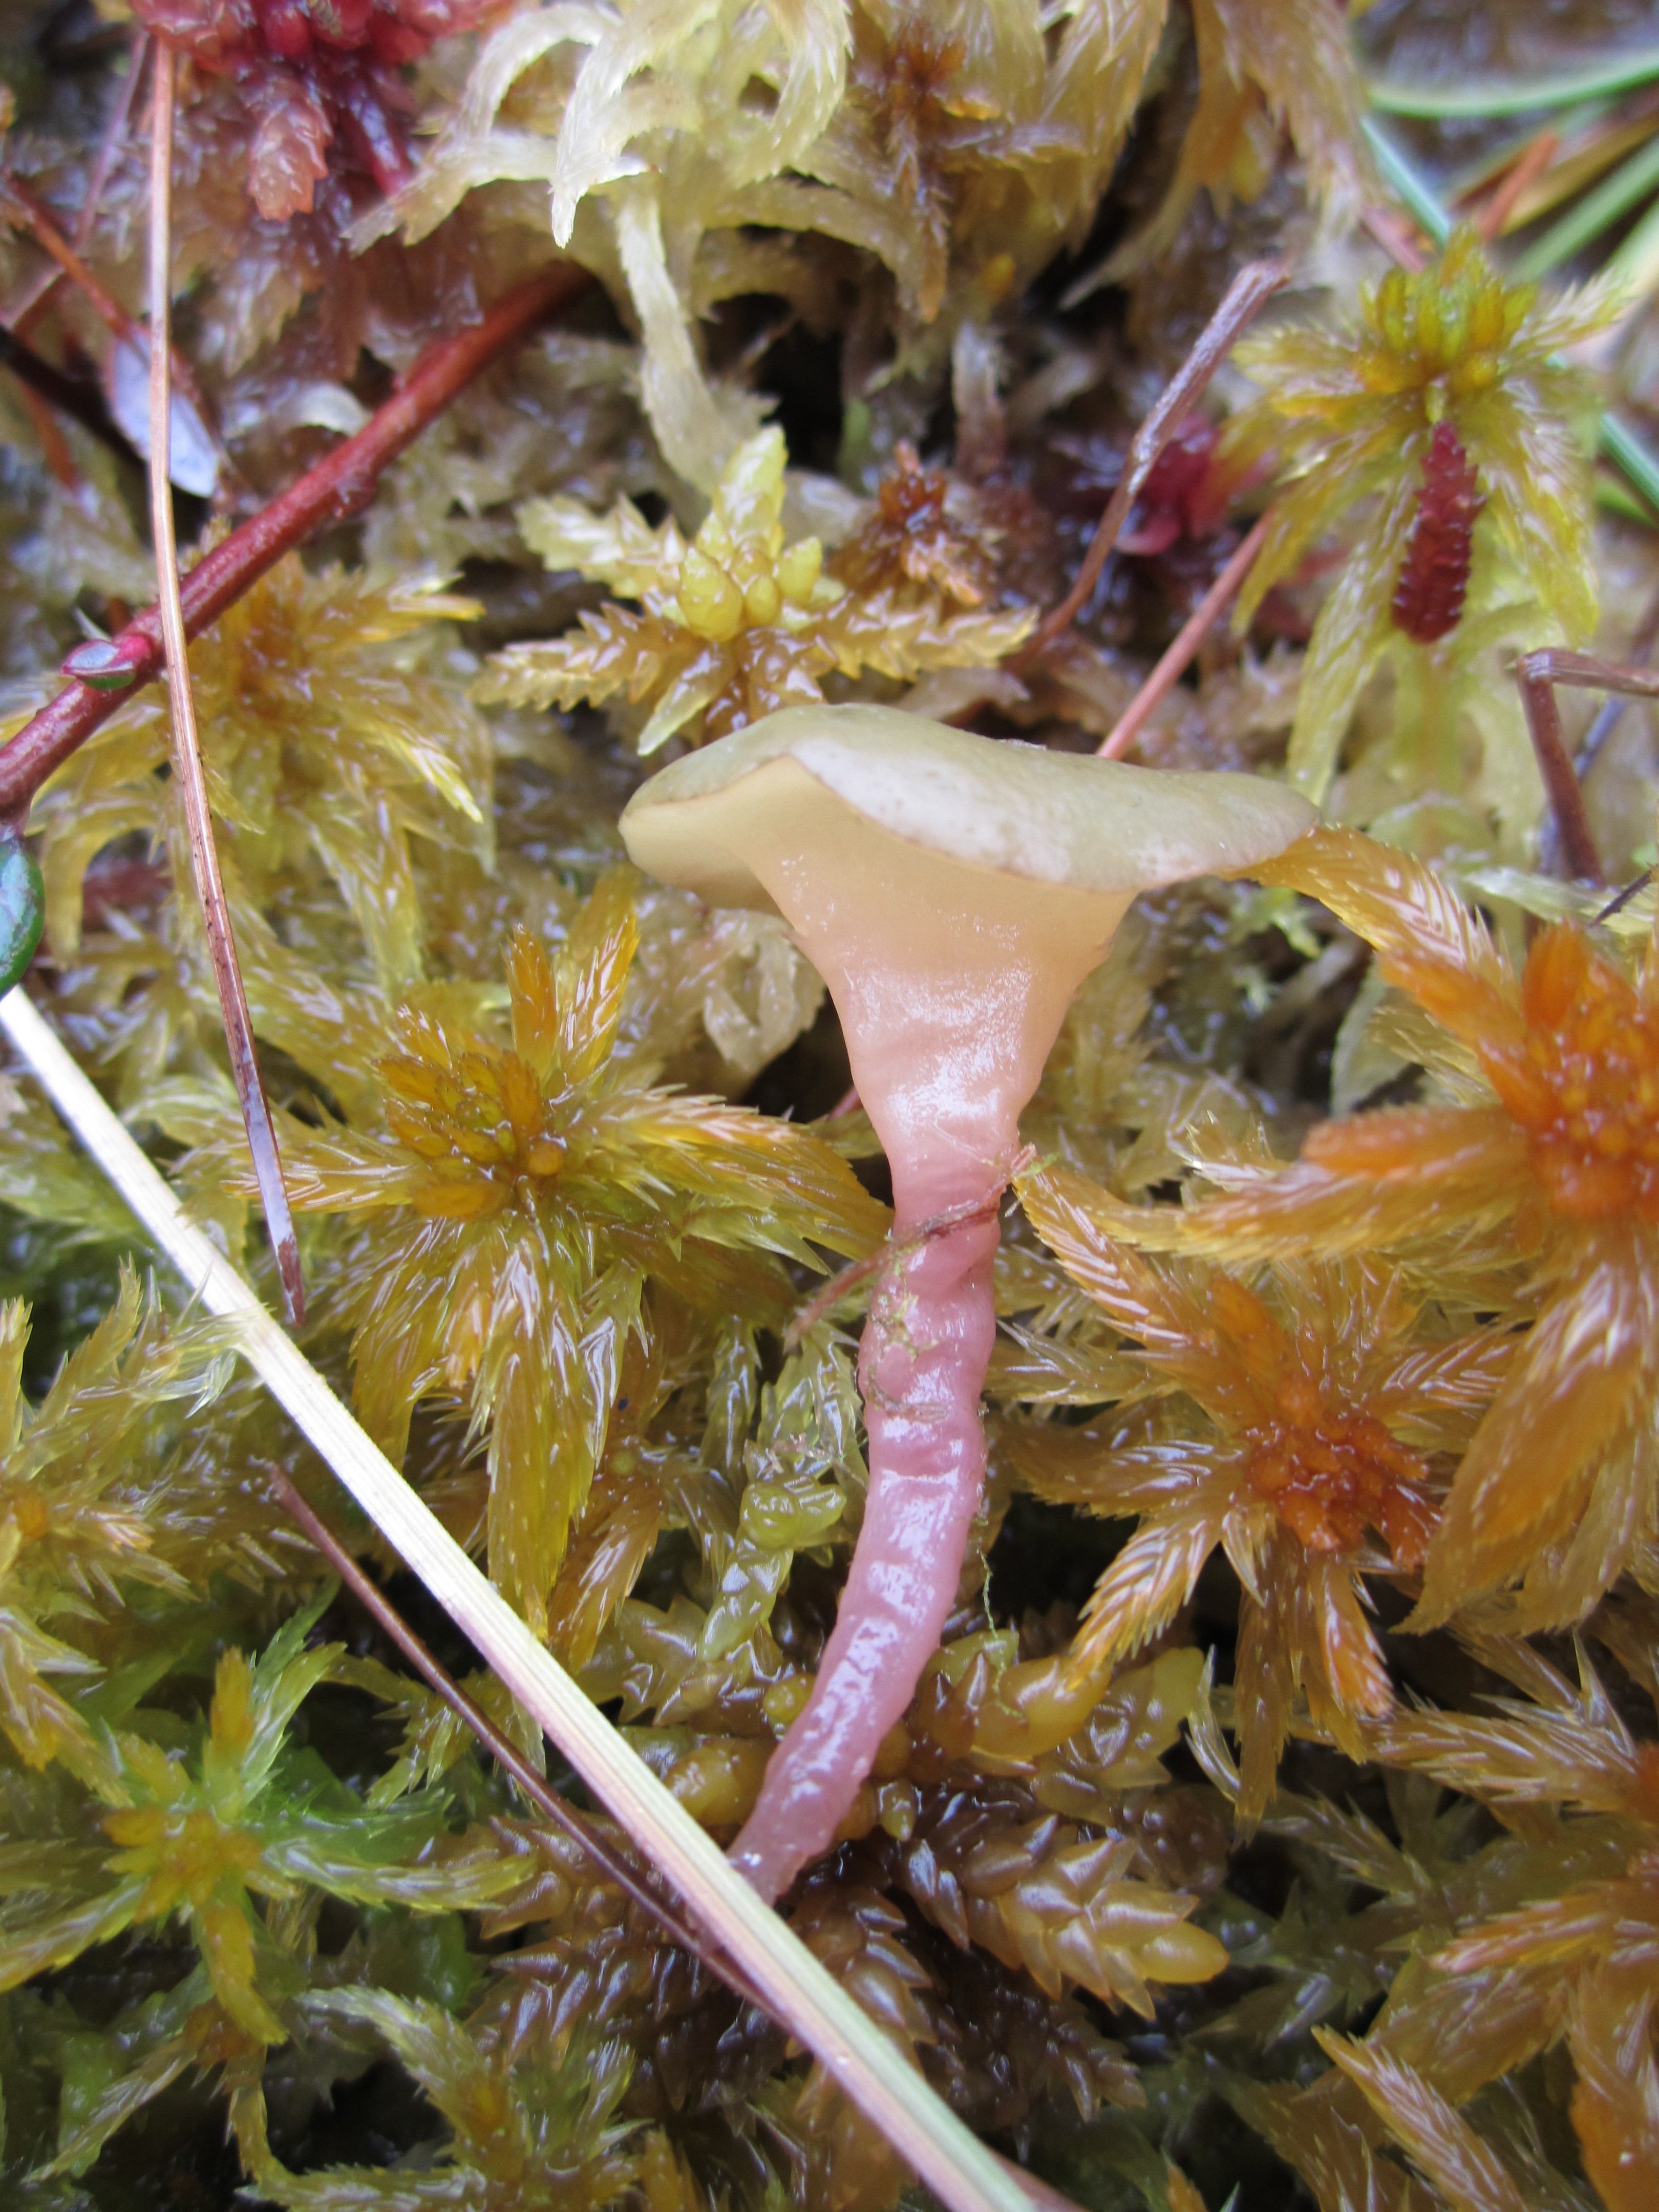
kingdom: Fungi
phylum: Ascomycota
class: Leotiomycetes
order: Helotiales
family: Gelatinodiscaceae
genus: Ascocoryne
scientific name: Ascocoryne turficola
